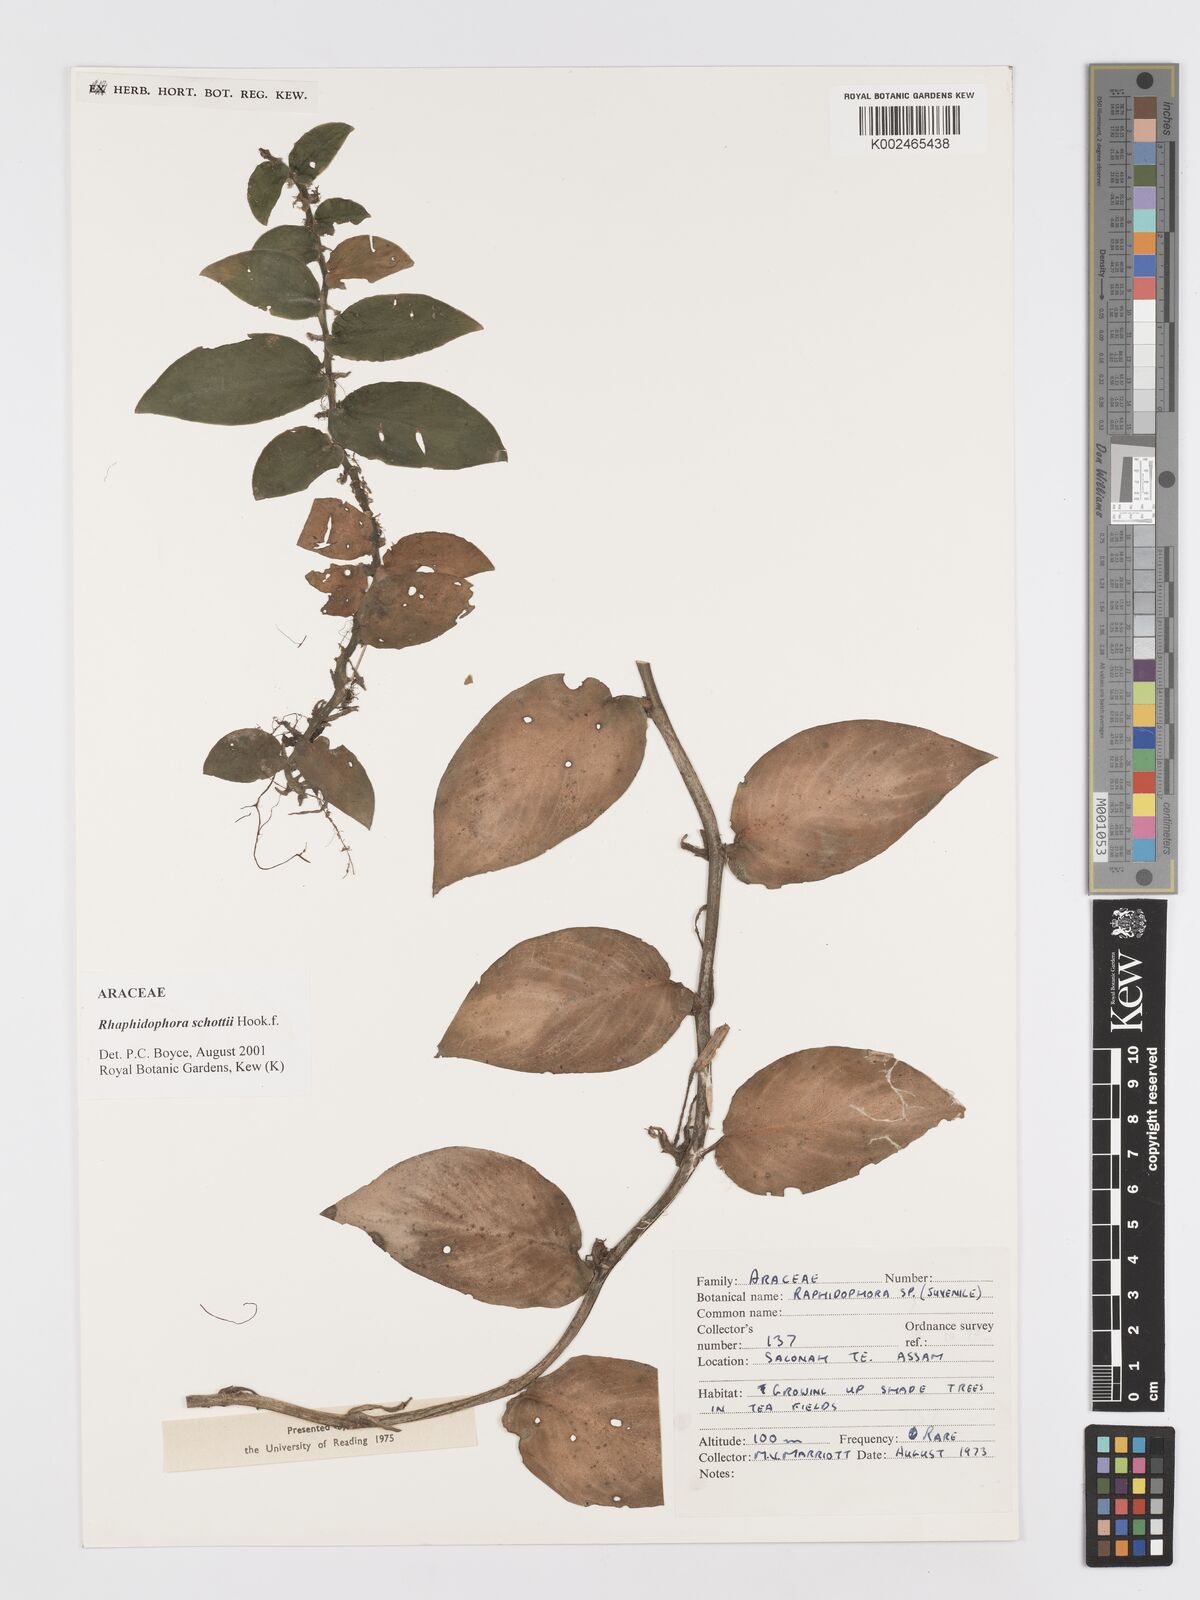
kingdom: Plantae
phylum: Tracheophyta
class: Liliopsida
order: Alismatales
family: Araceae
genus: Rhaphidophora
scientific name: Rhaphidophora schottii
